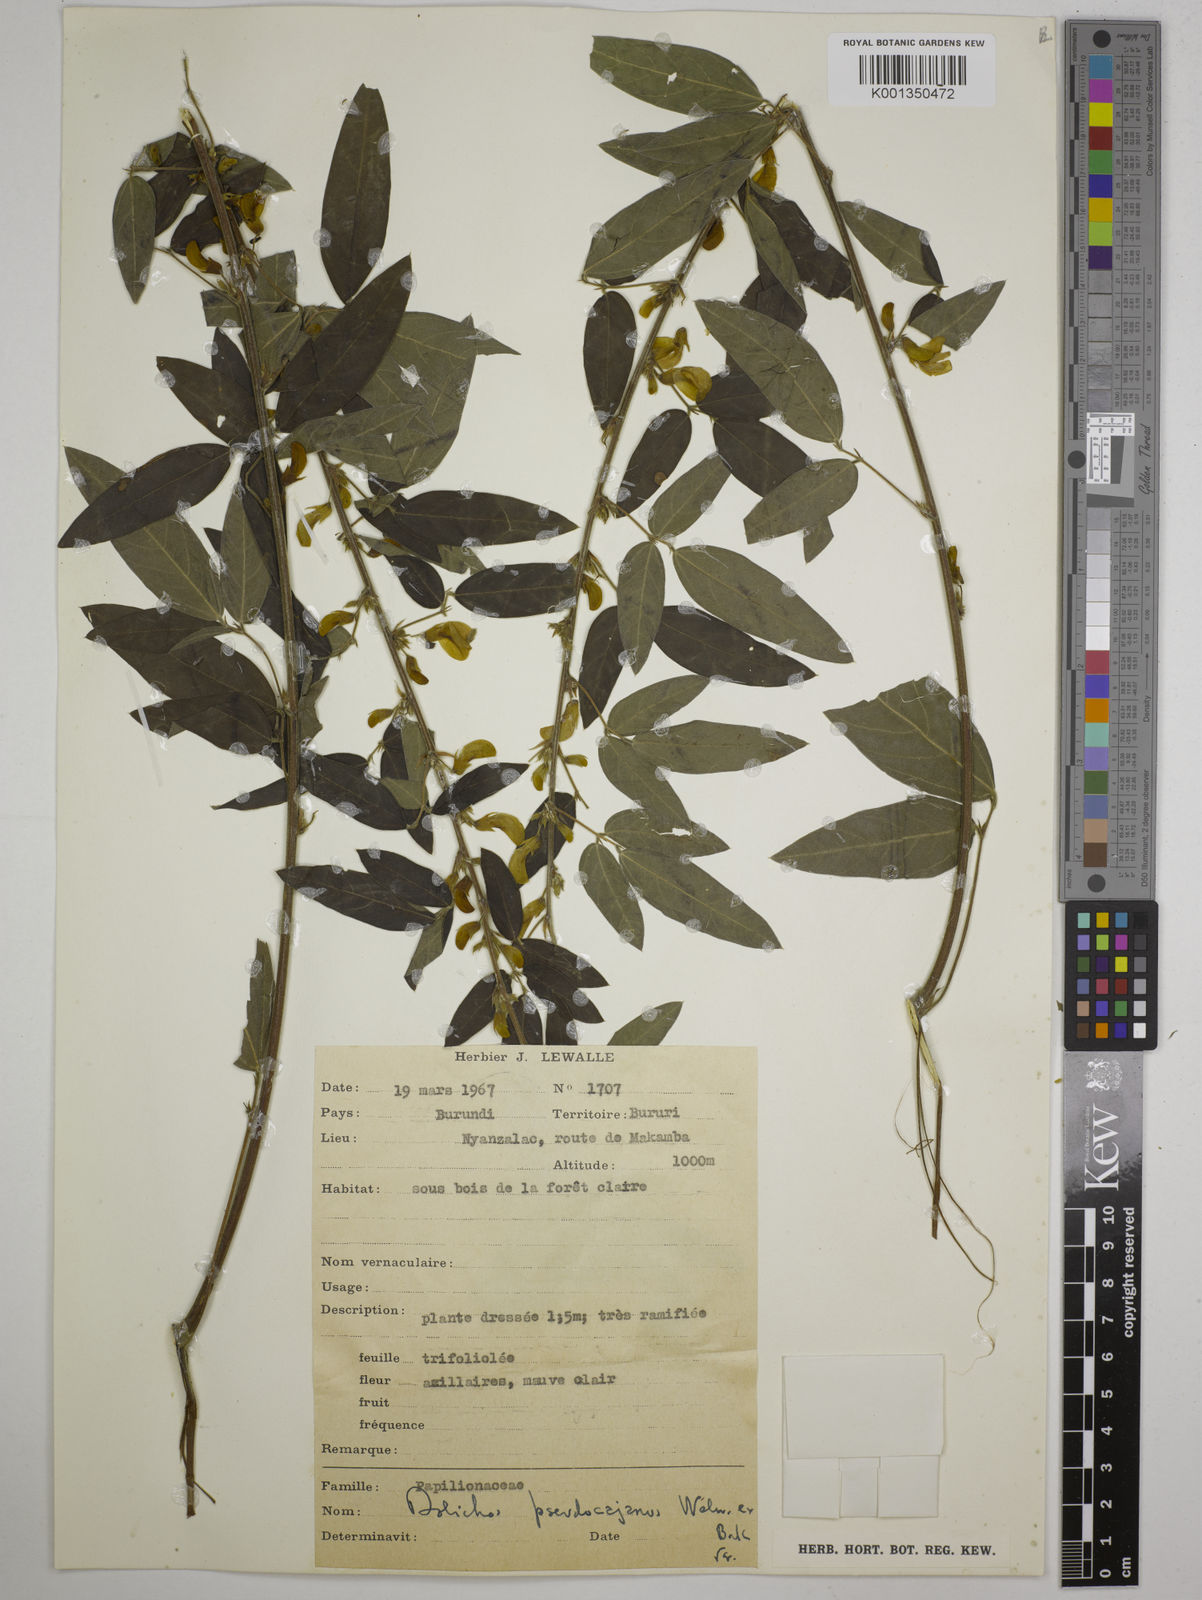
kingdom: Plantae
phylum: Tracheophyta
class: Magnoliopsida
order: Fabales
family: Fabaceae
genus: Dolichos
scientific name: Dolichos pseudocajanus
